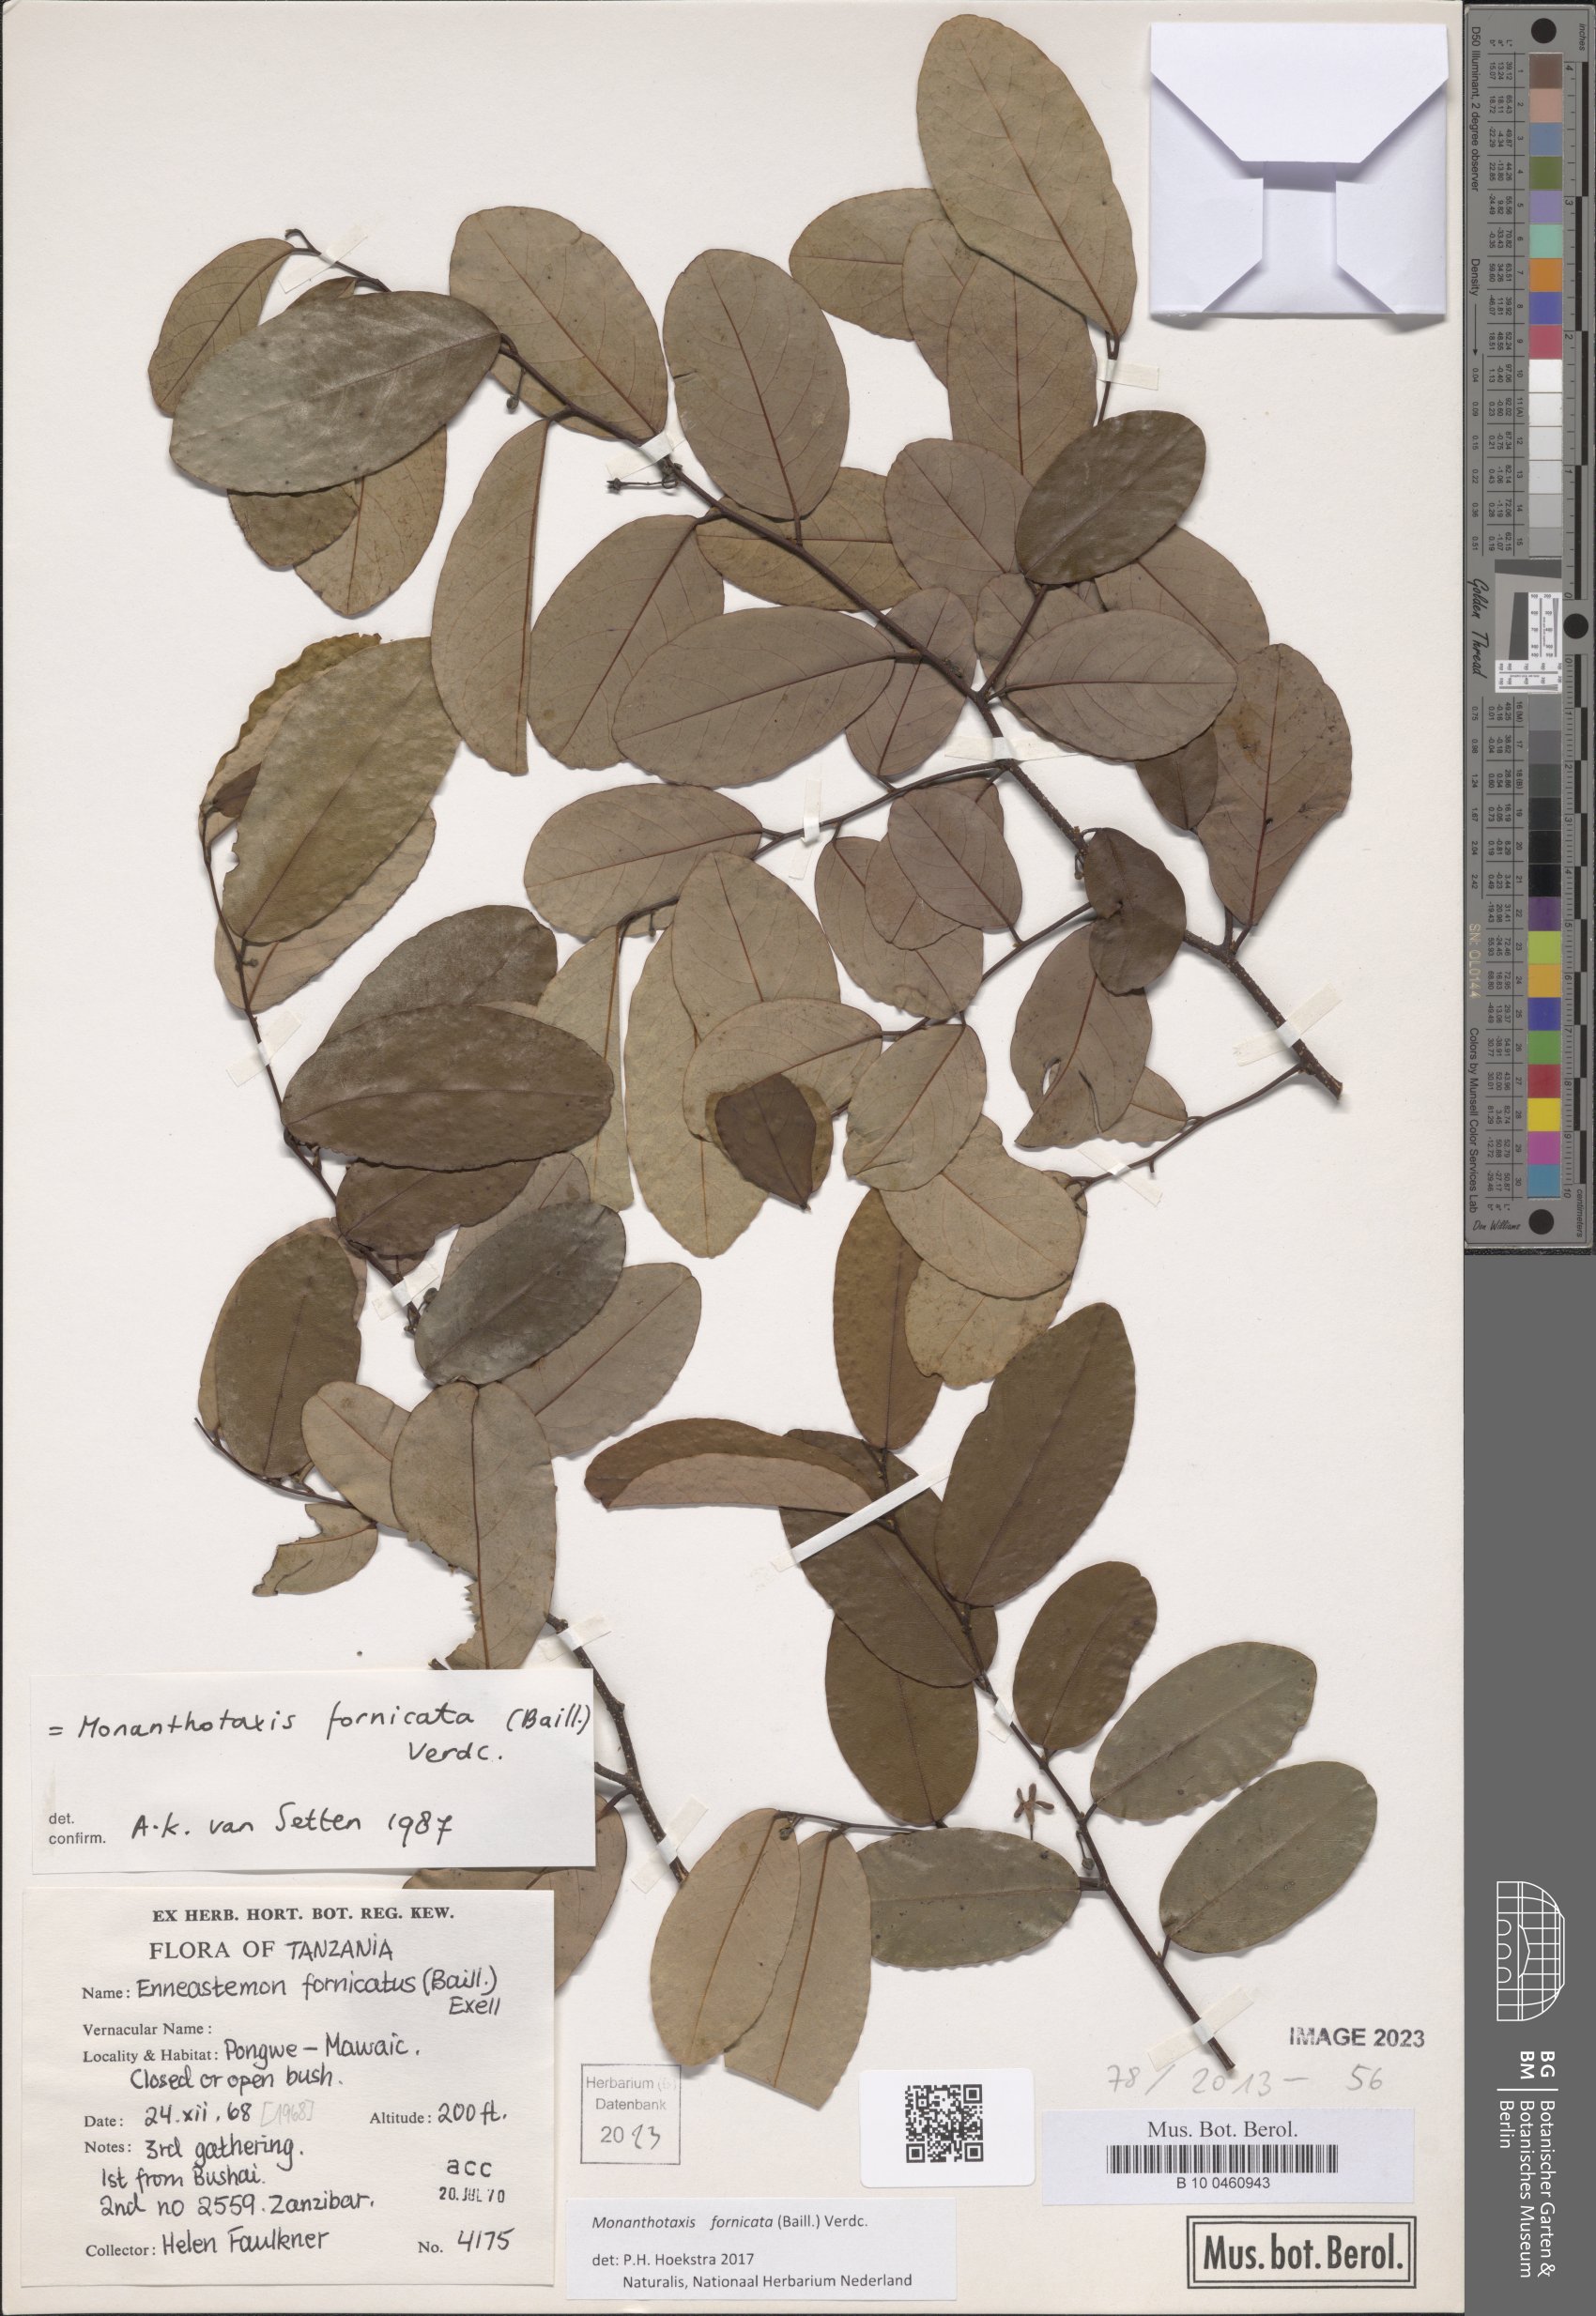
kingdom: Plantae
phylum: Tracheophyta
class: Magnoliopsida
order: Magnoliales
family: Annonaceae
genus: Monanthotaxis
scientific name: Monanthotaxis fornicata
